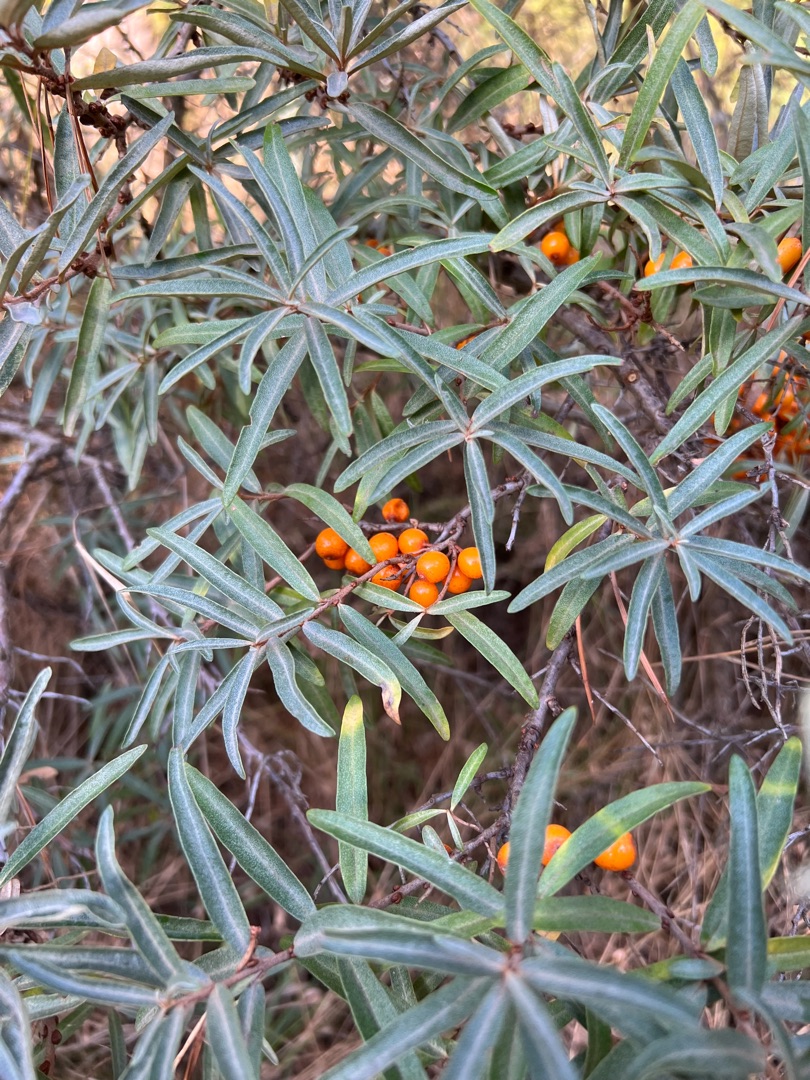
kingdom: Plantae
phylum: Tracheophyta
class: Magnoliopsida
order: Rosales
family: Elaeagnaceae
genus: Hippophae
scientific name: Hippophae rhamnoides
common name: Havtorn
